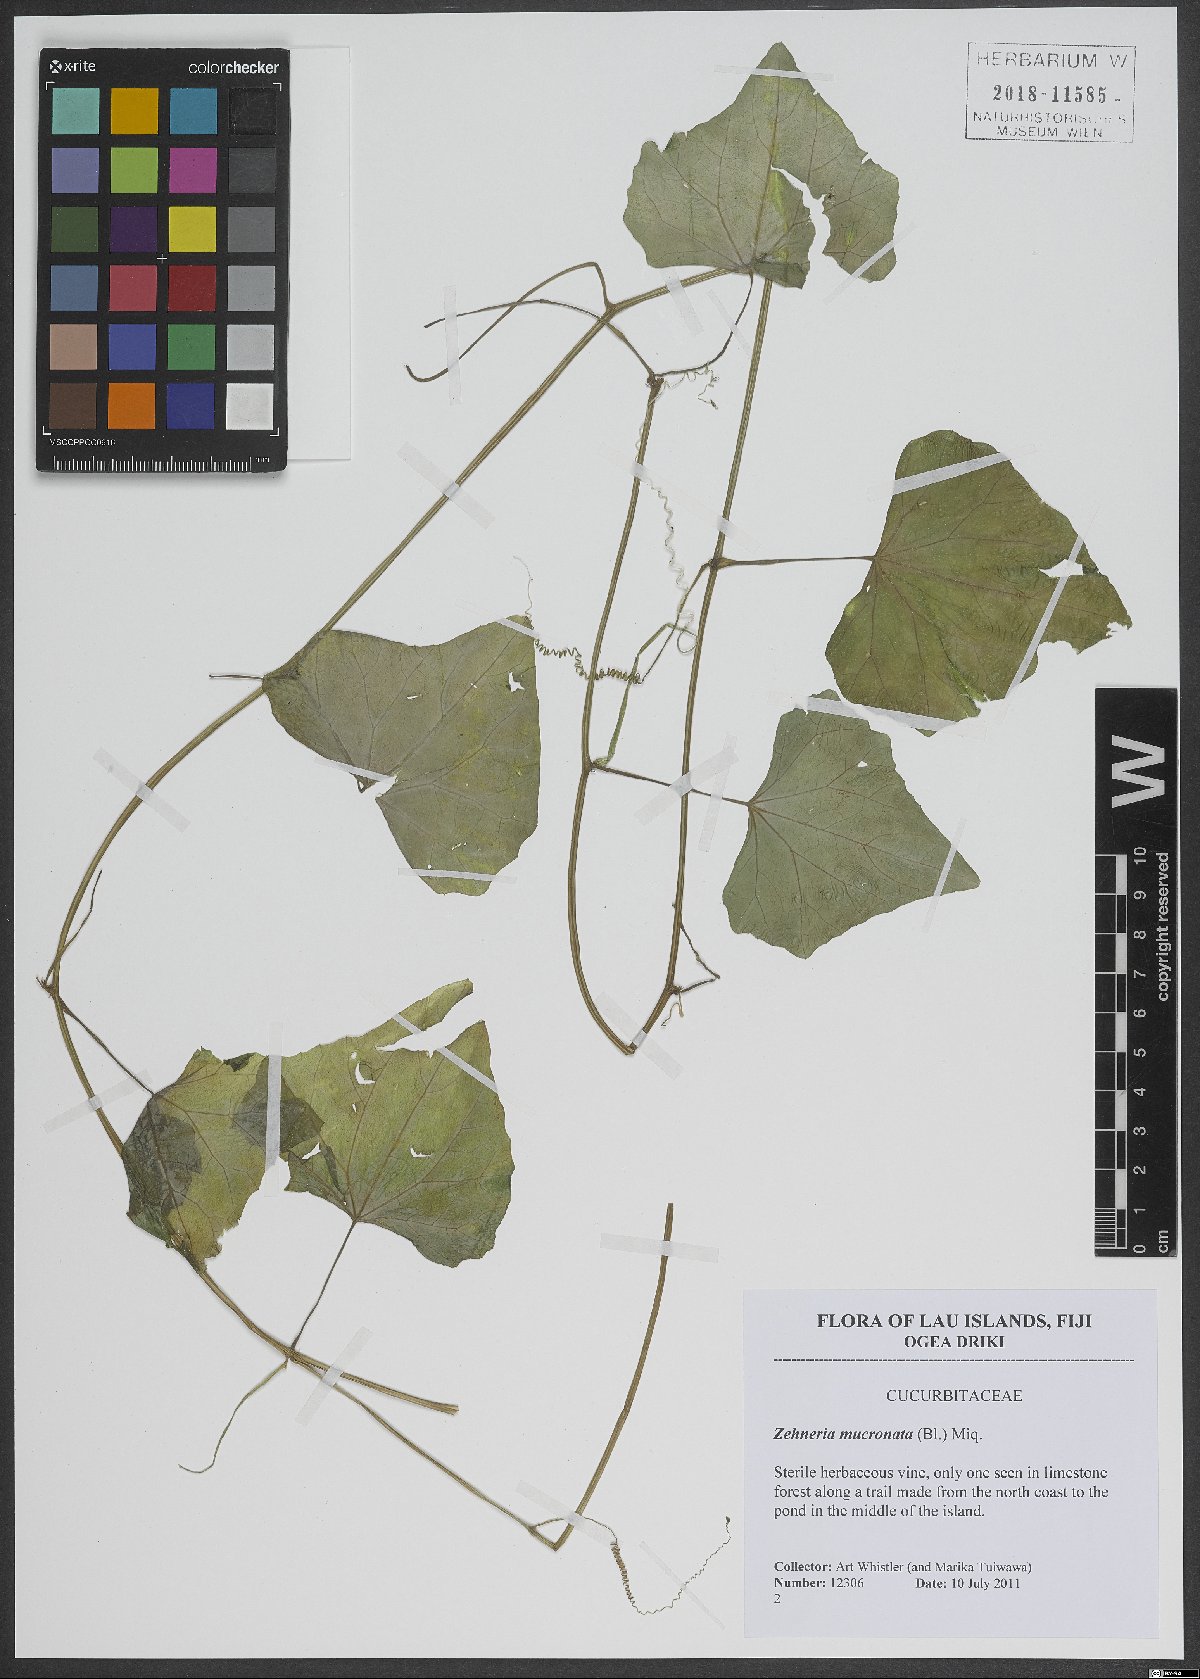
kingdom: Plantae
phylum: Tracheophyta
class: Magnoliopsida
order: Cucurbitales
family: Cucurbitaceae
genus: Zehneria
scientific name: Zehneria mucronata
